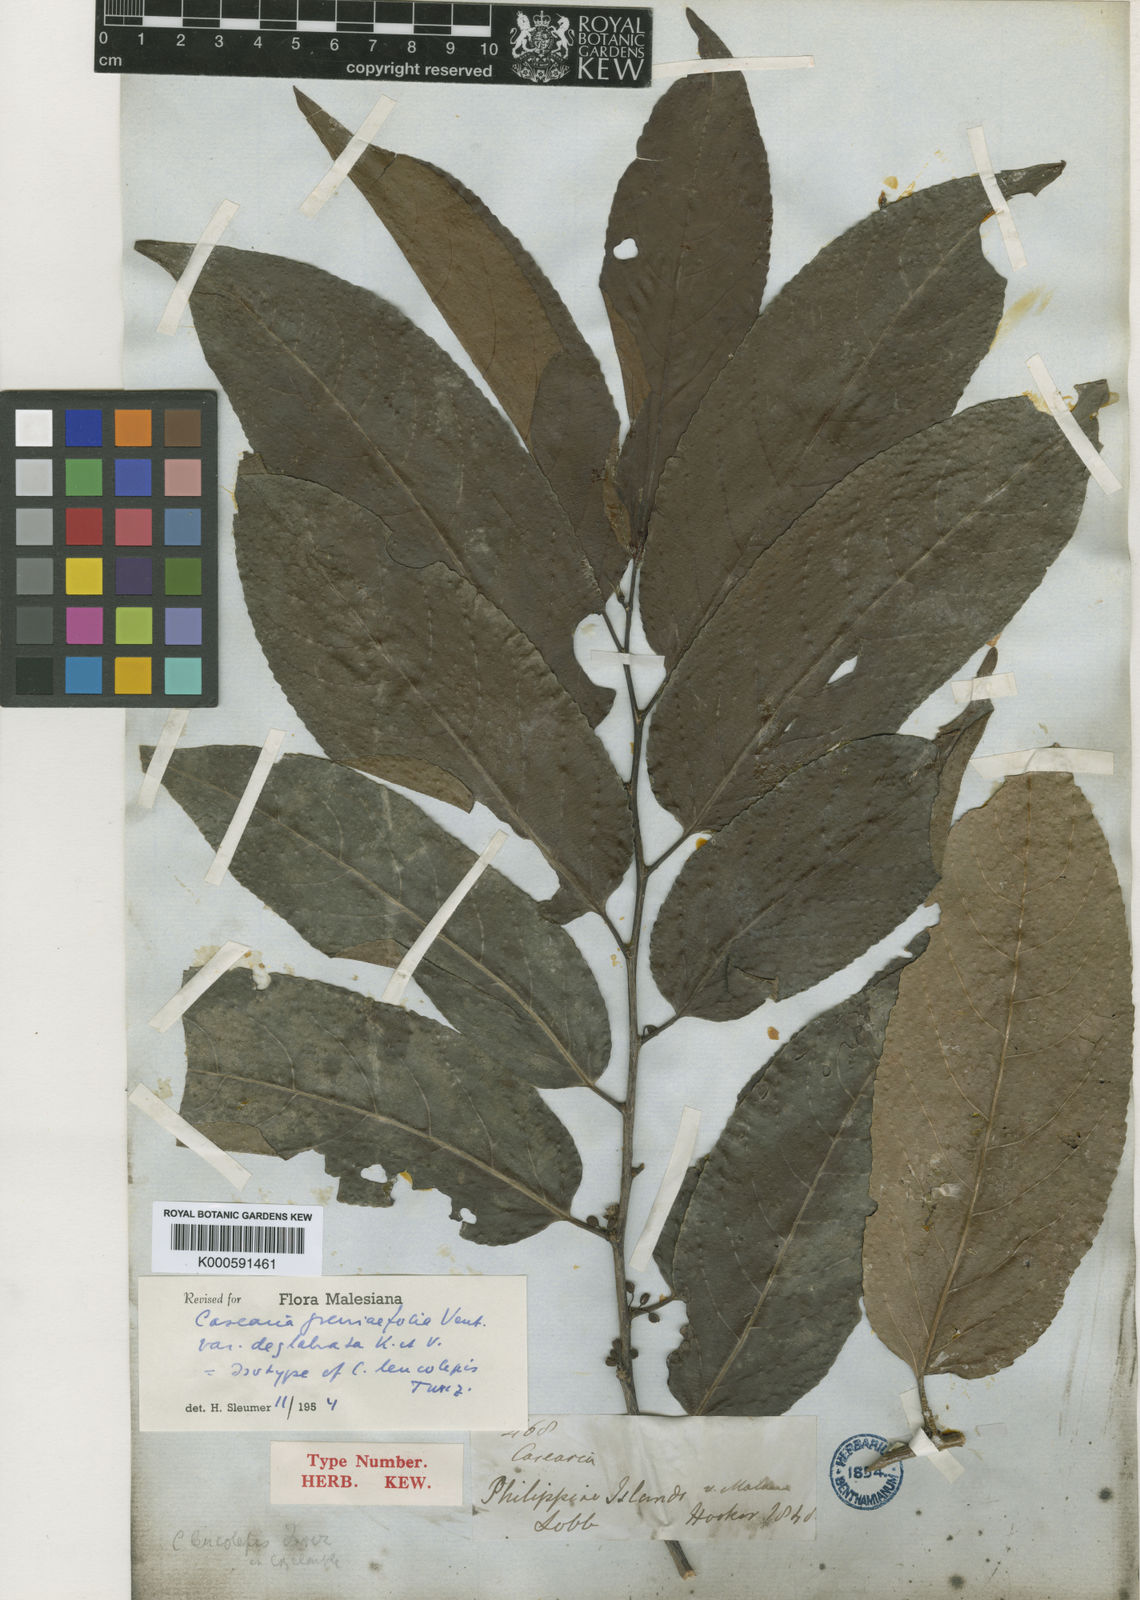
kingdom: Plantae
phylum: Tracheophyta
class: Magnoliopsida
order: Malpighiales
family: Salicaceae
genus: Casearia
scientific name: Casearia grewiifolia
